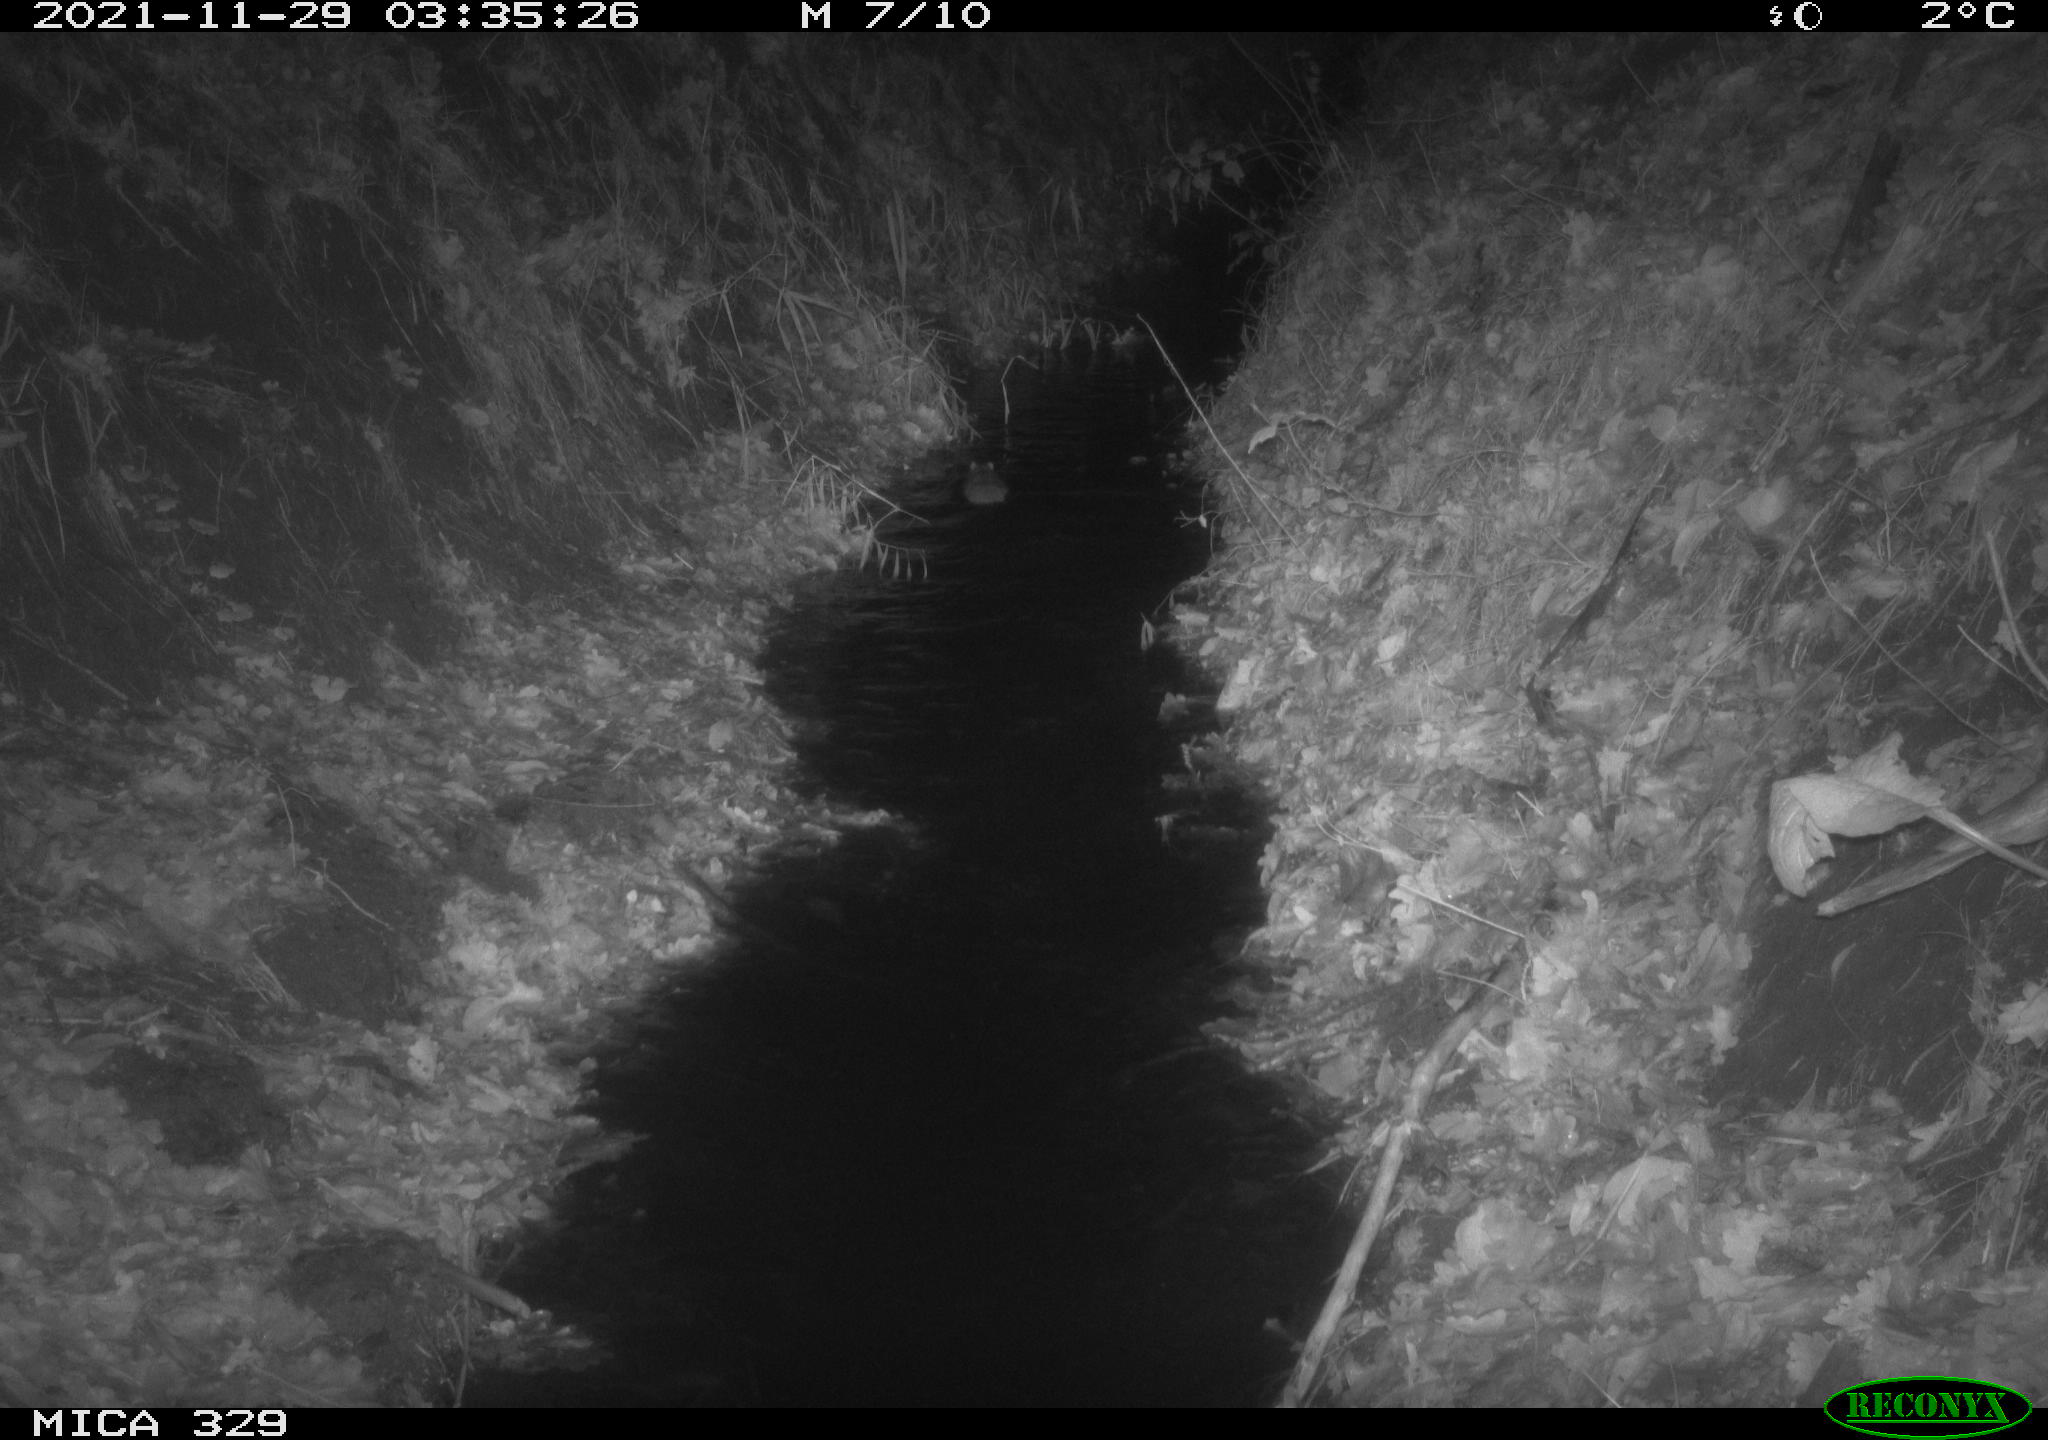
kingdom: Animalia
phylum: Chordata
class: Mammalia
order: Rodentia
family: Muridae
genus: Rattus
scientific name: Rattus norvegicus
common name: Brown rat
